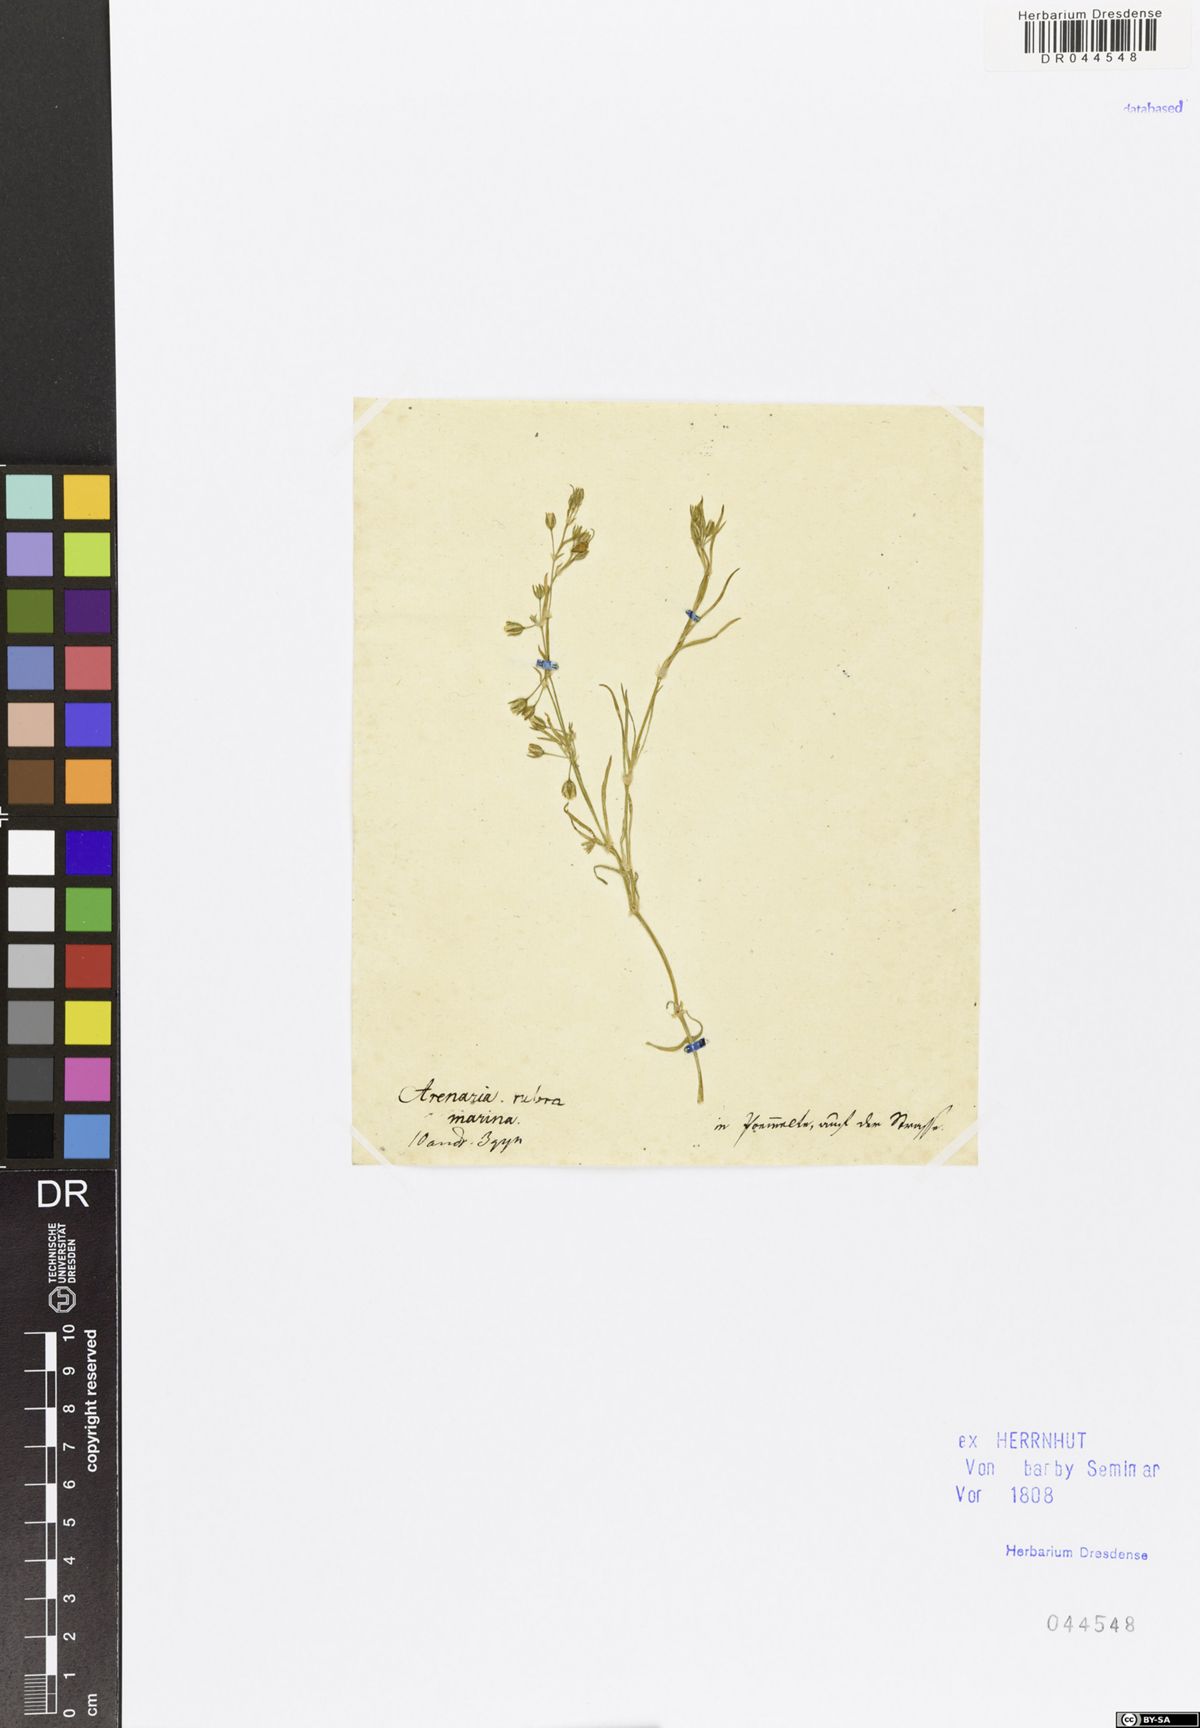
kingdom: Plantae
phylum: Tracheophyta
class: Magnoliopsida
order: Caryophyllales
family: Caryophyllaceae
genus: Spergularia
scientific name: Spergularia marina
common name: Lesser sea-spurrey
